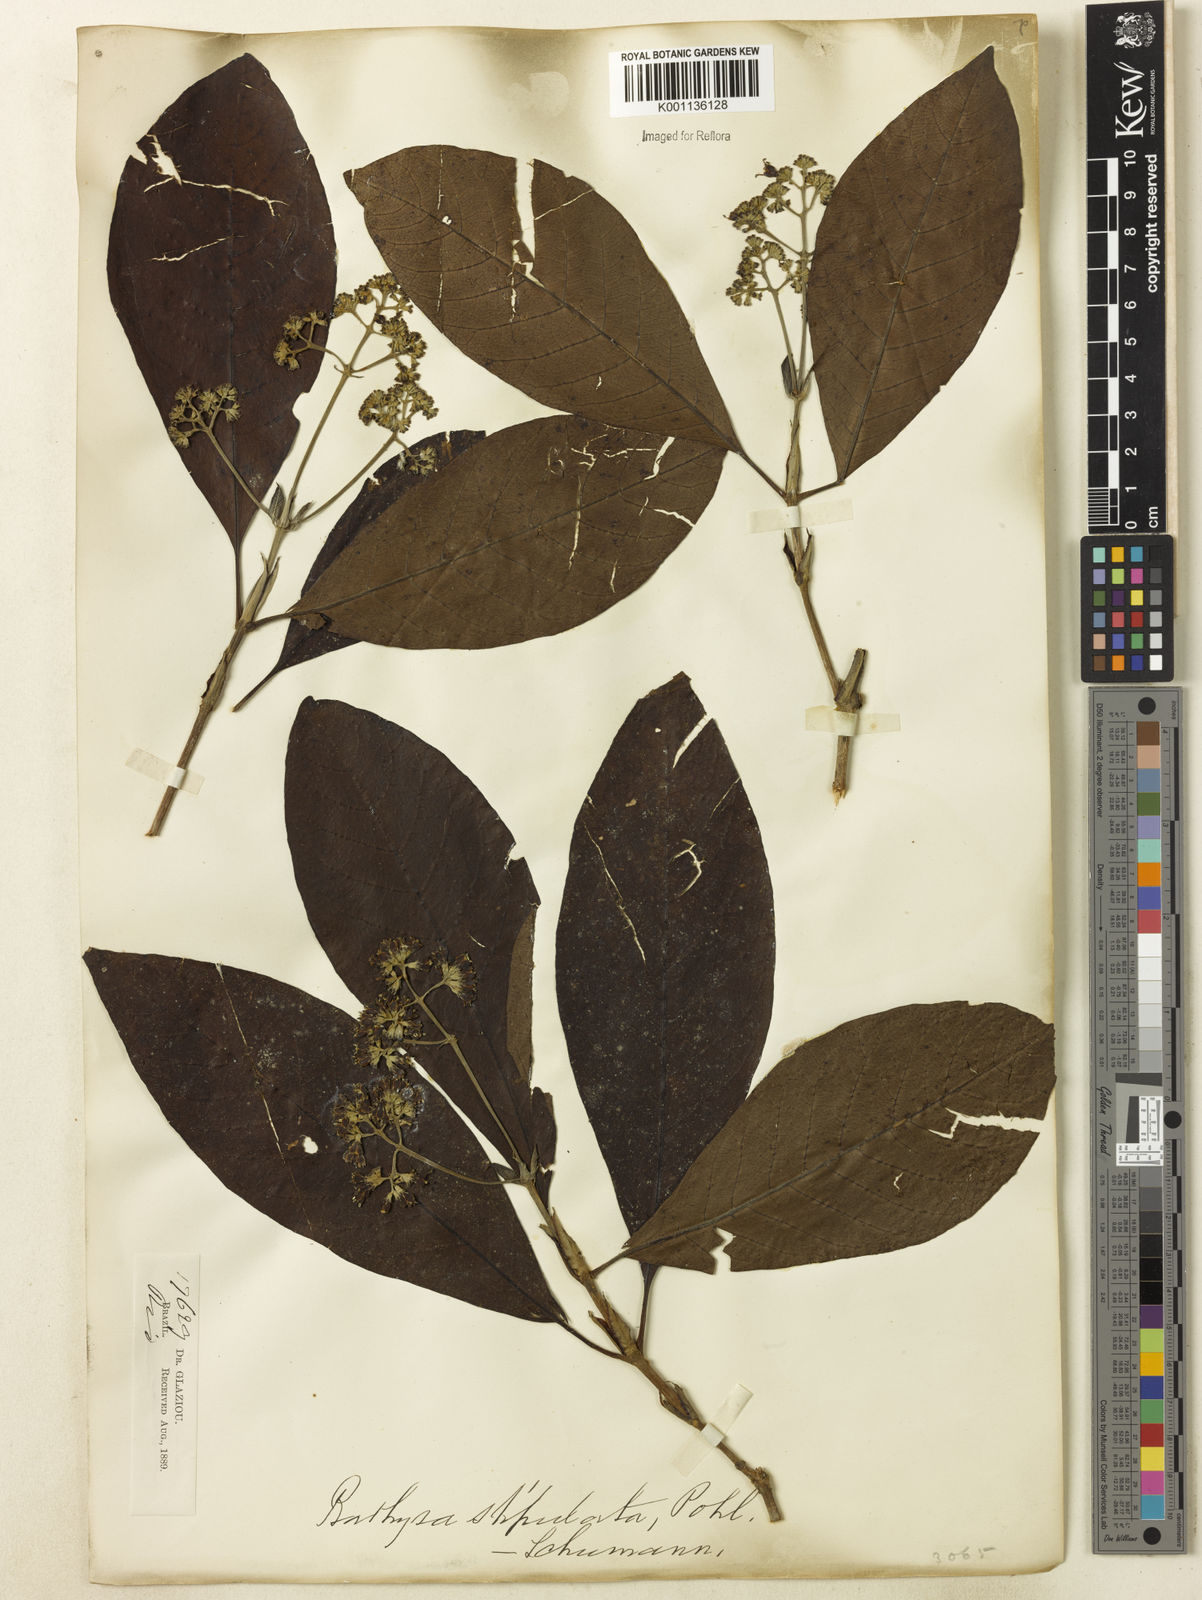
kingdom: Plantae
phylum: Tracheophyta
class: Magnoliopsida
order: Gentianales
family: Rubiaceae
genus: Bathysa
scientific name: Bathysa stipulata
